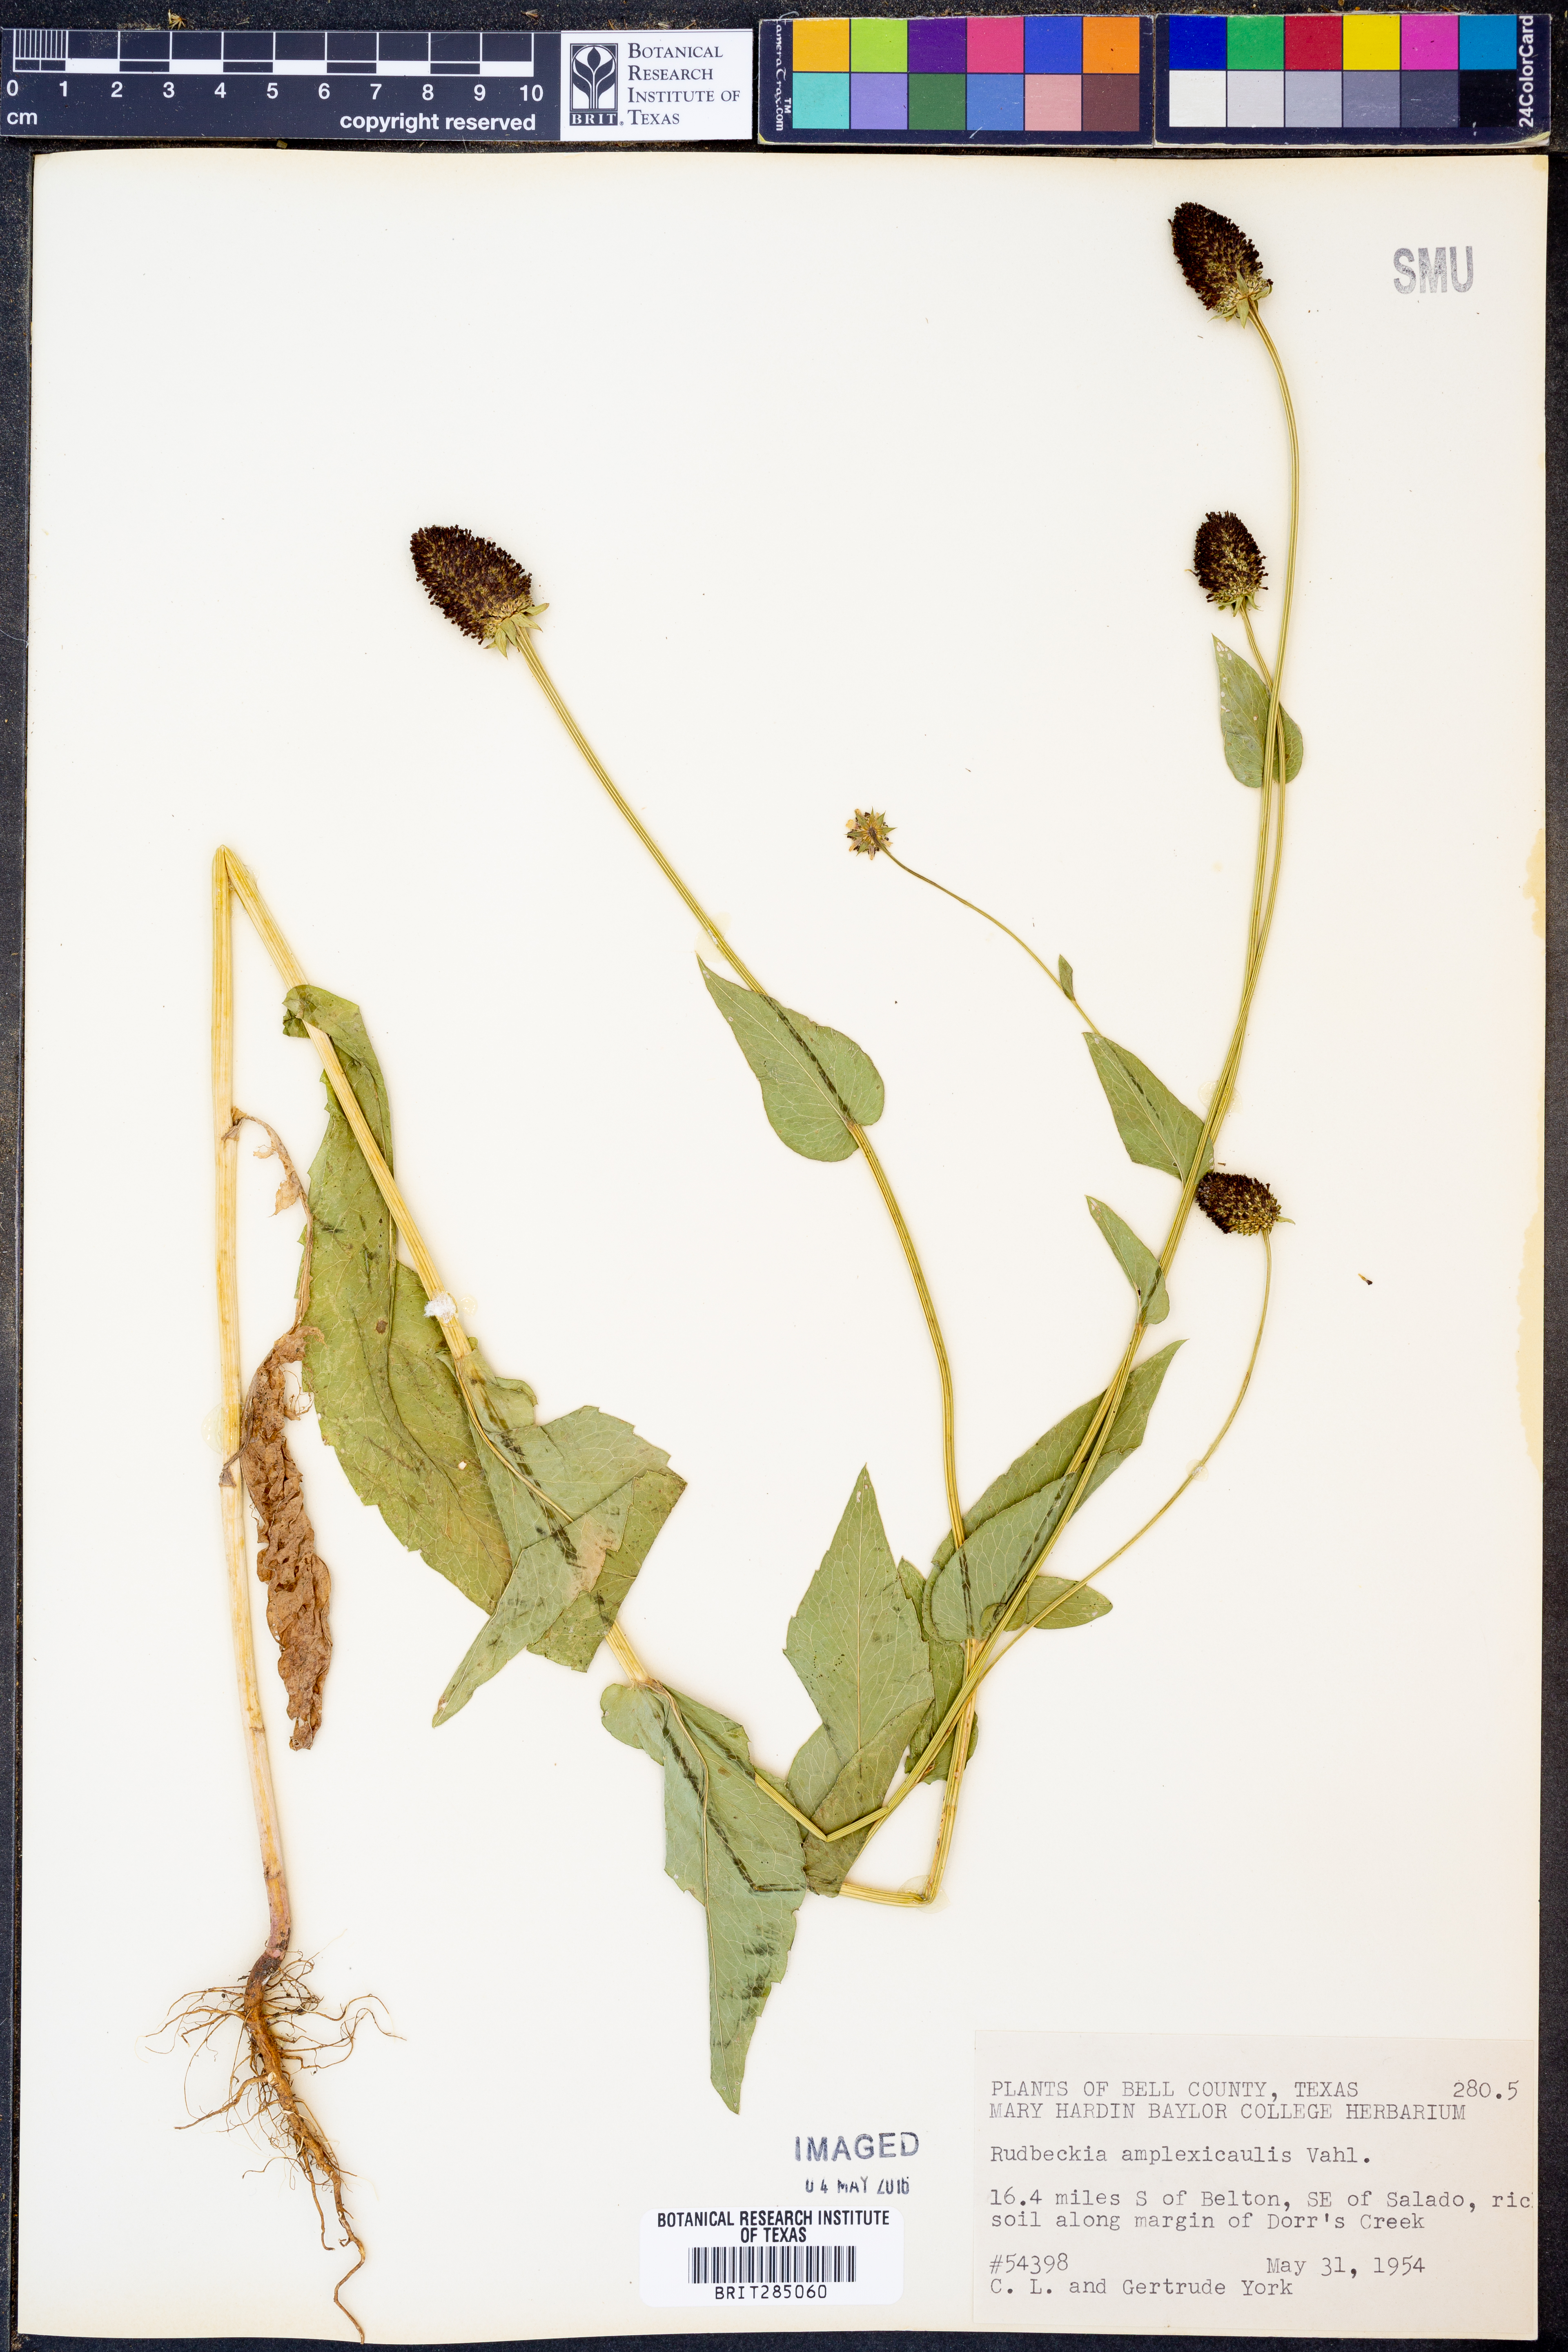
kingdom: Plantae
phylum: Tracheophyta
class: Magnoliopsida
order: Asterales
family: Asteraceae
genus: Rudbeckia
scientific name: Rudbeckia amplexicaulis
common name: Clasping-leaf coneflower
